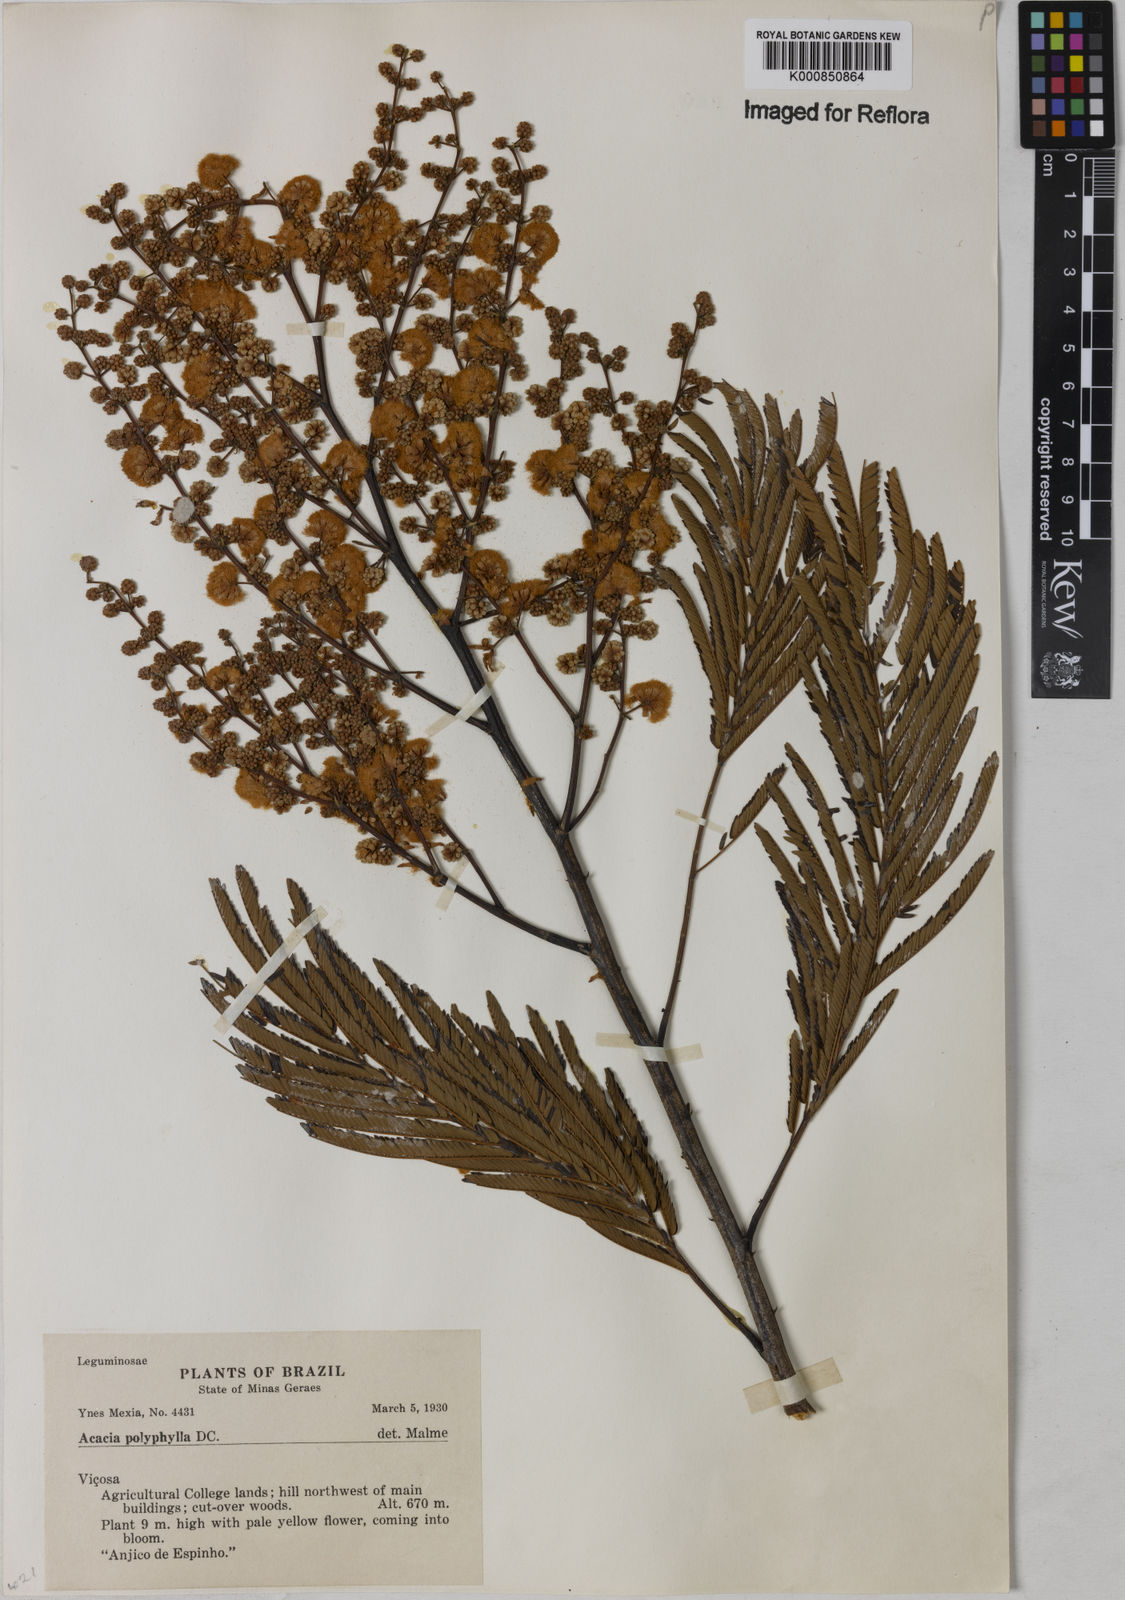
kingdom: Plantae
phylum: Tracheophyta
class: Magnoliopsida
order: Fabales
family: Fabaceae
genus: Senegalia
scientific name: Senegalia polyphylla
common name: White-tamarind
